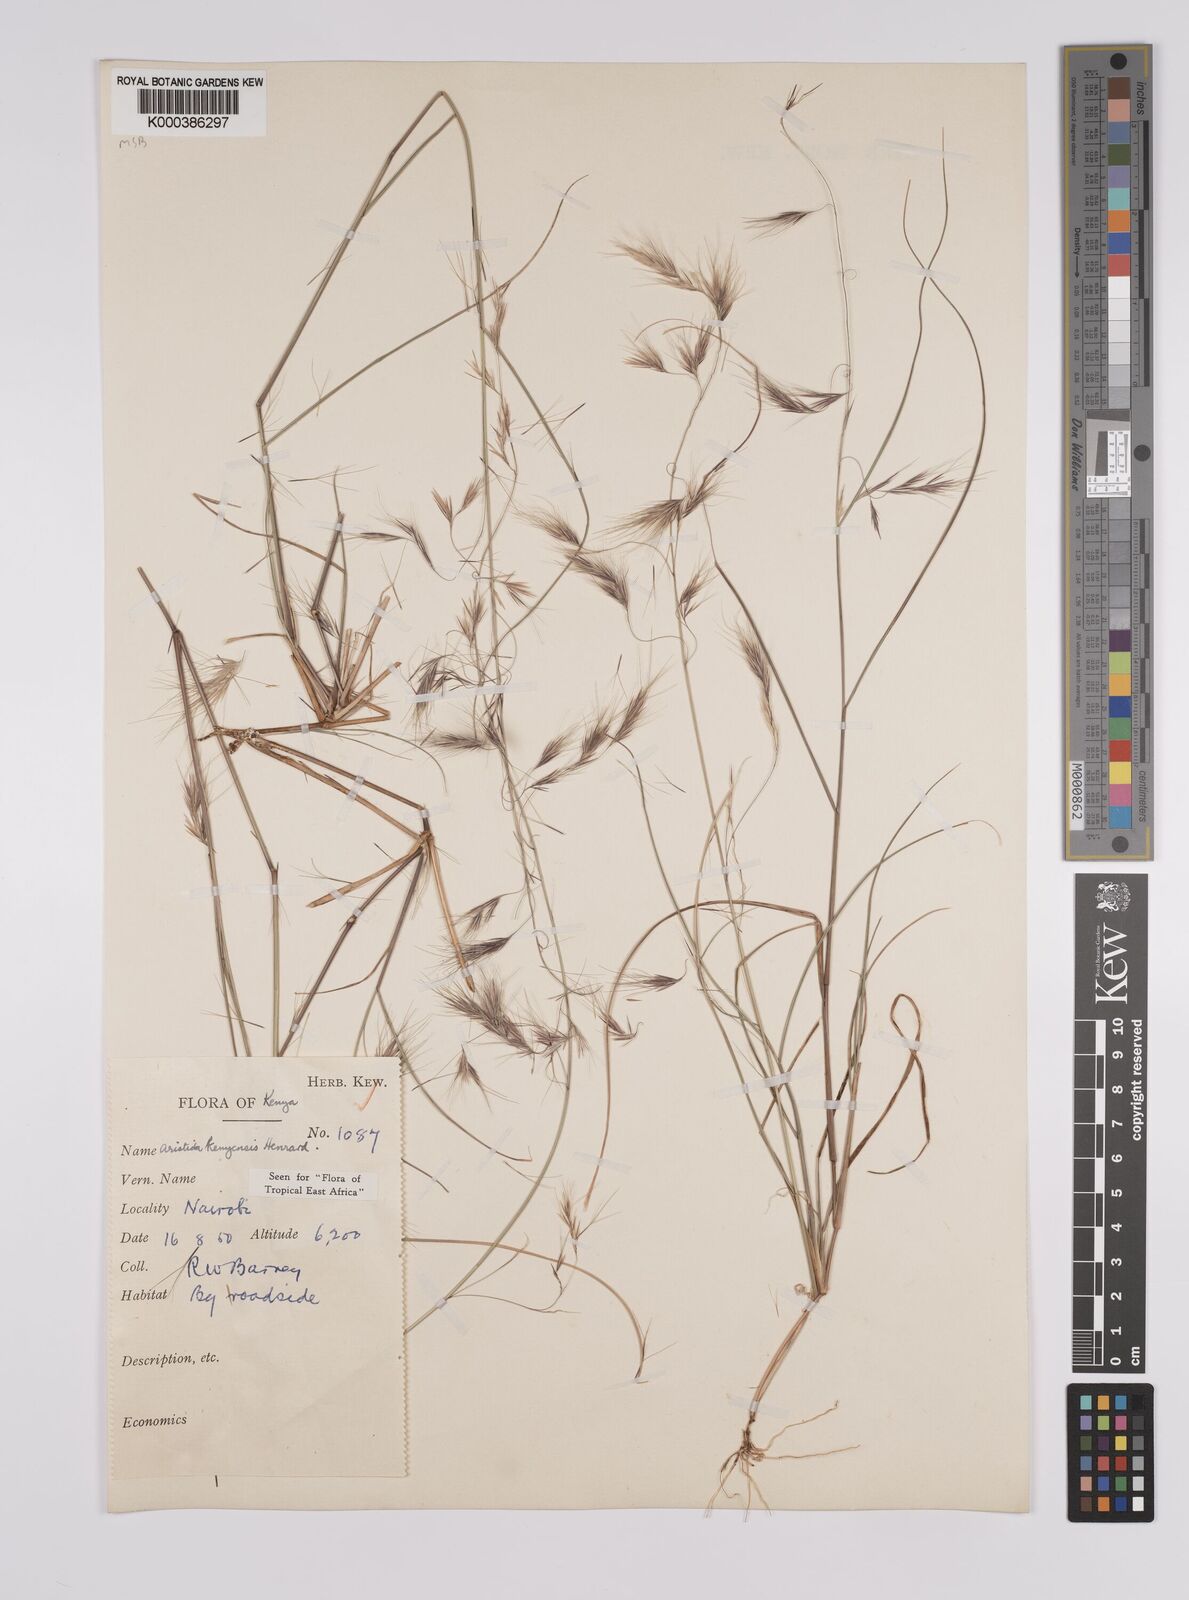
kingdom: Plantae
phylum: Tracheophyta
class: Liliopsida
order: Poales
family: Poaceae
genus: Aristida
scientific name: Aristida kenyensis
